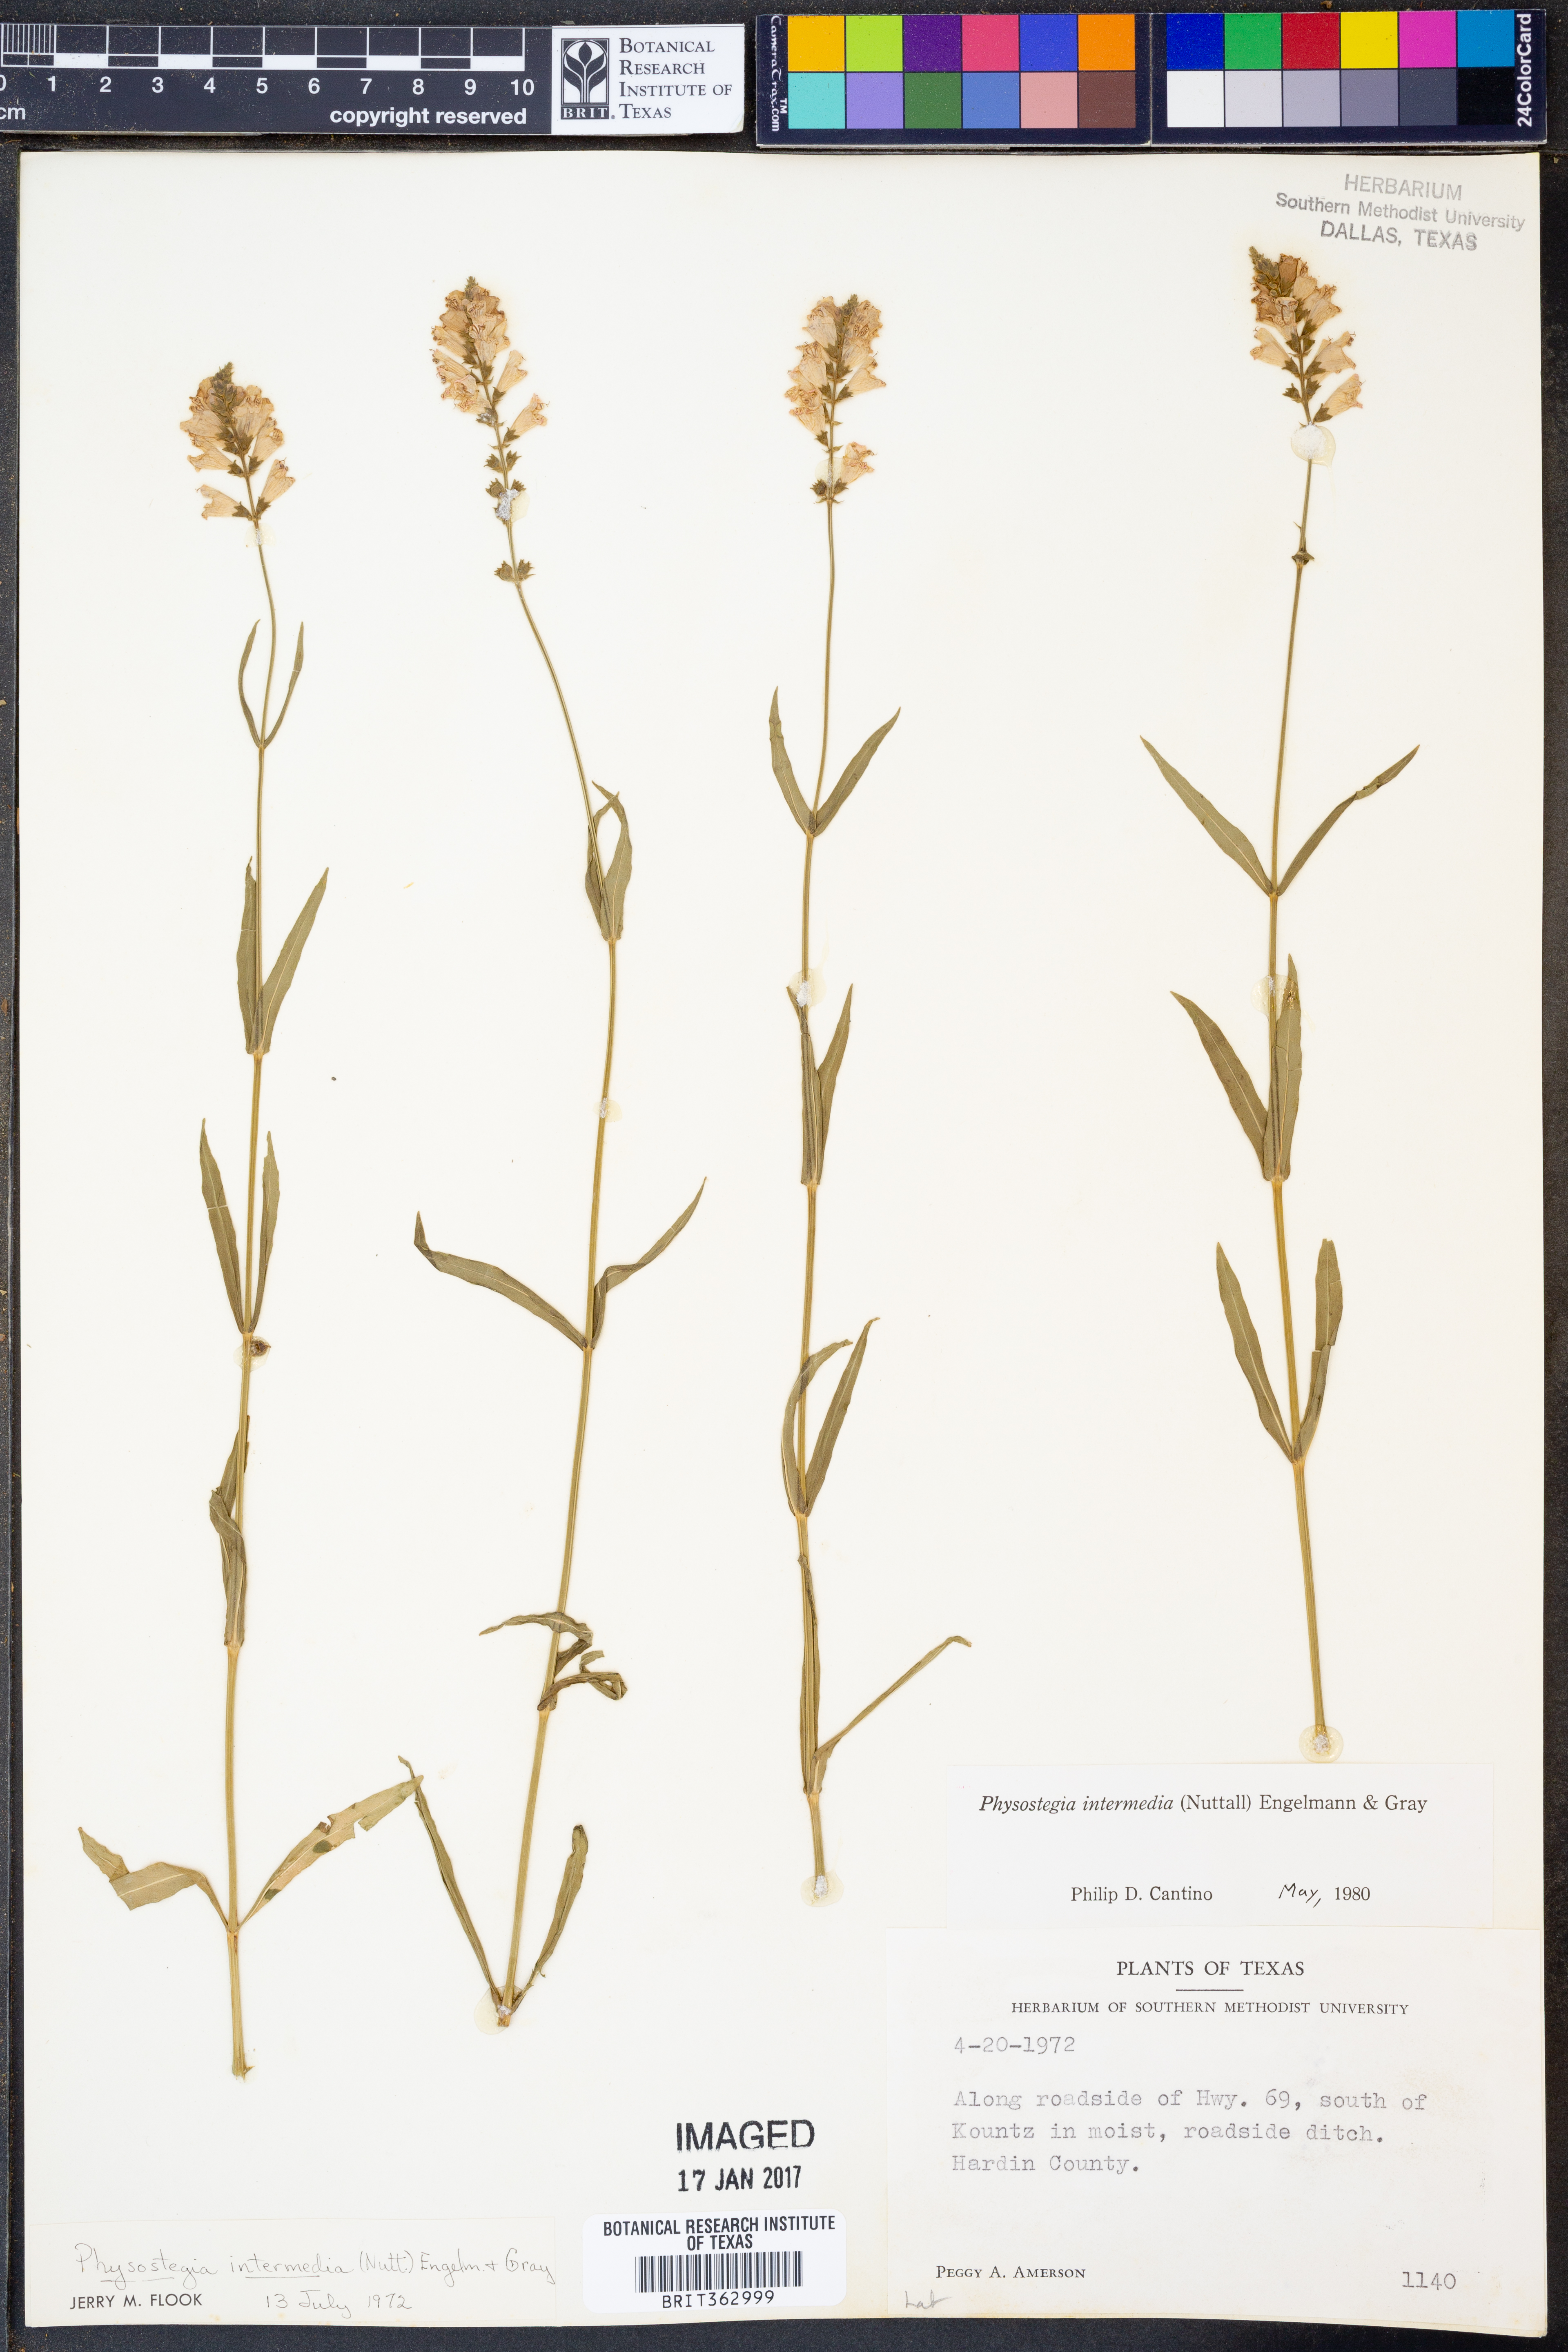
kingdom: Plantae
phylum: Tracheophyta
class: Magnoliopsida
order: Lamiales
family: Lamiaceae
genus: Physostegia
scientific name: Physostegia intermedia
